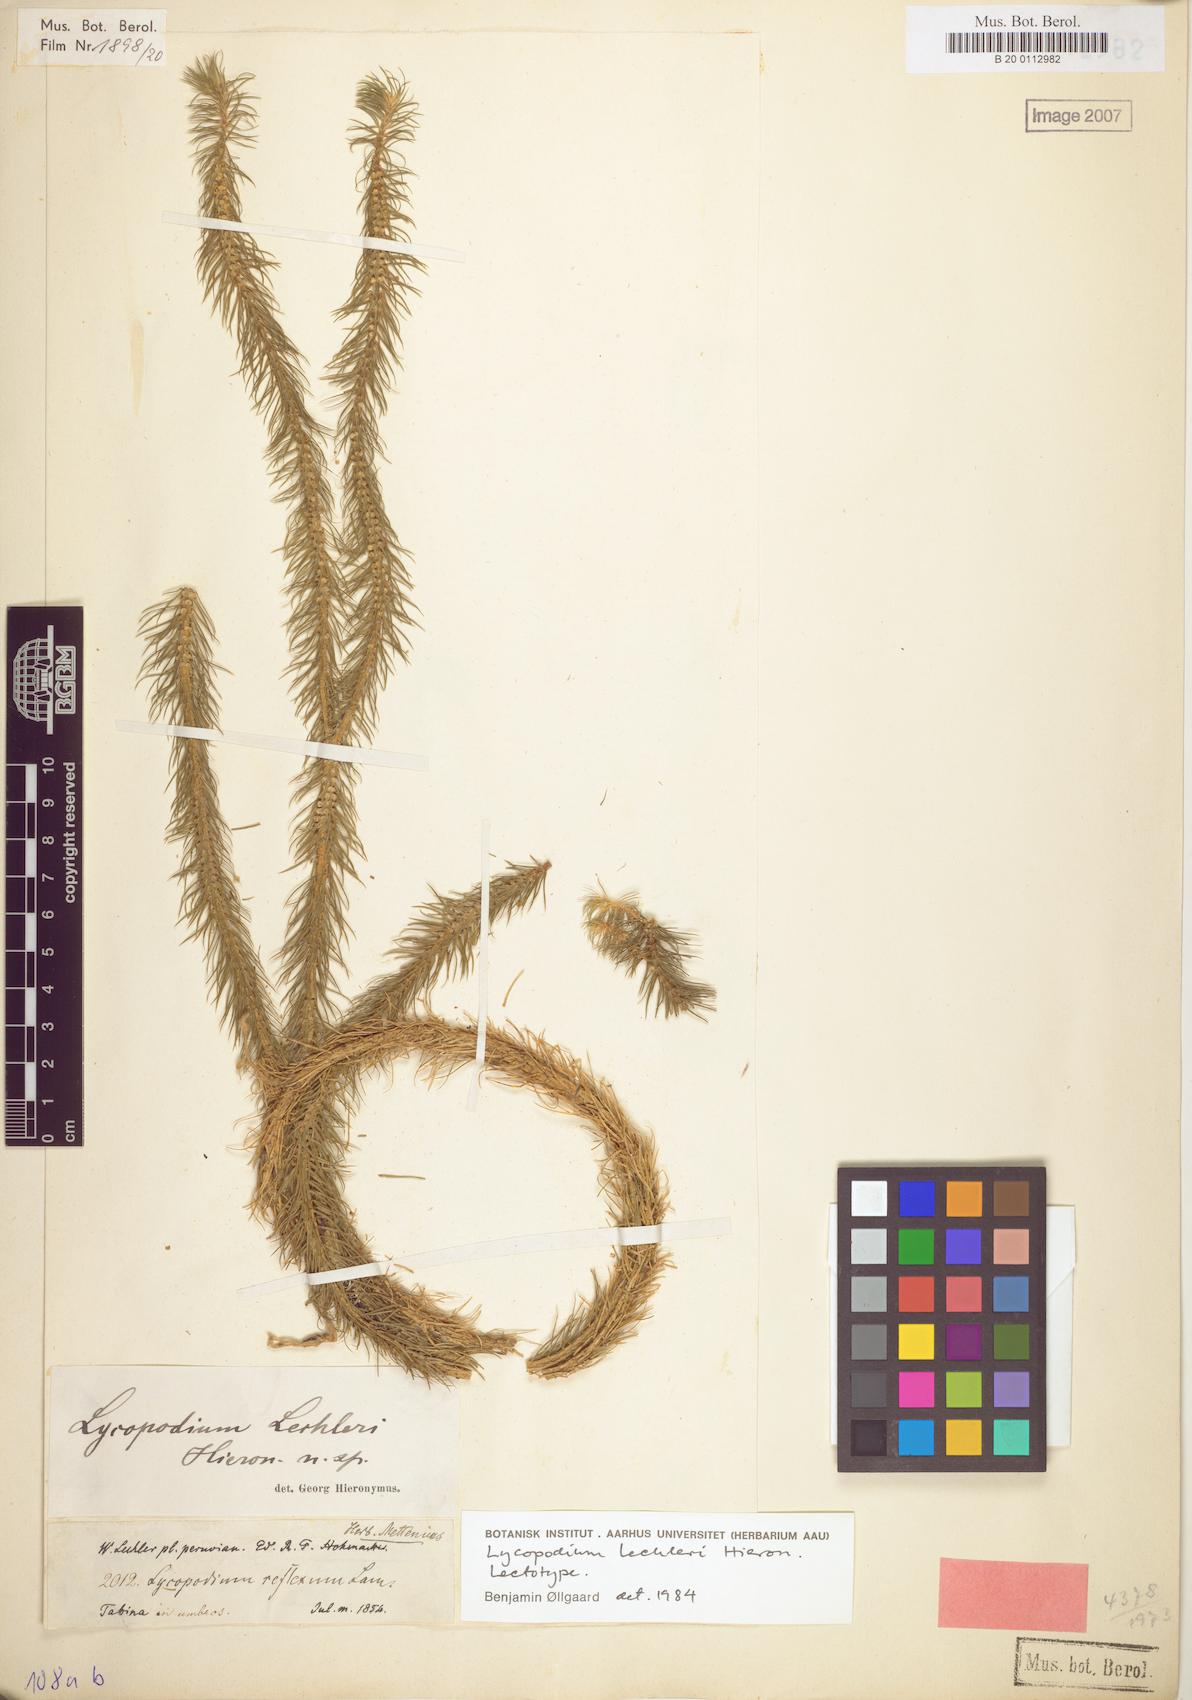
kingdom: Plantae
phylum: Tracheophyta
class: Lycopodiopsida
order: Lycopodiales
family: Lycopodiaceae
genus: Phlegmariurus
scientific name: Phlegmariurus hippurideus
